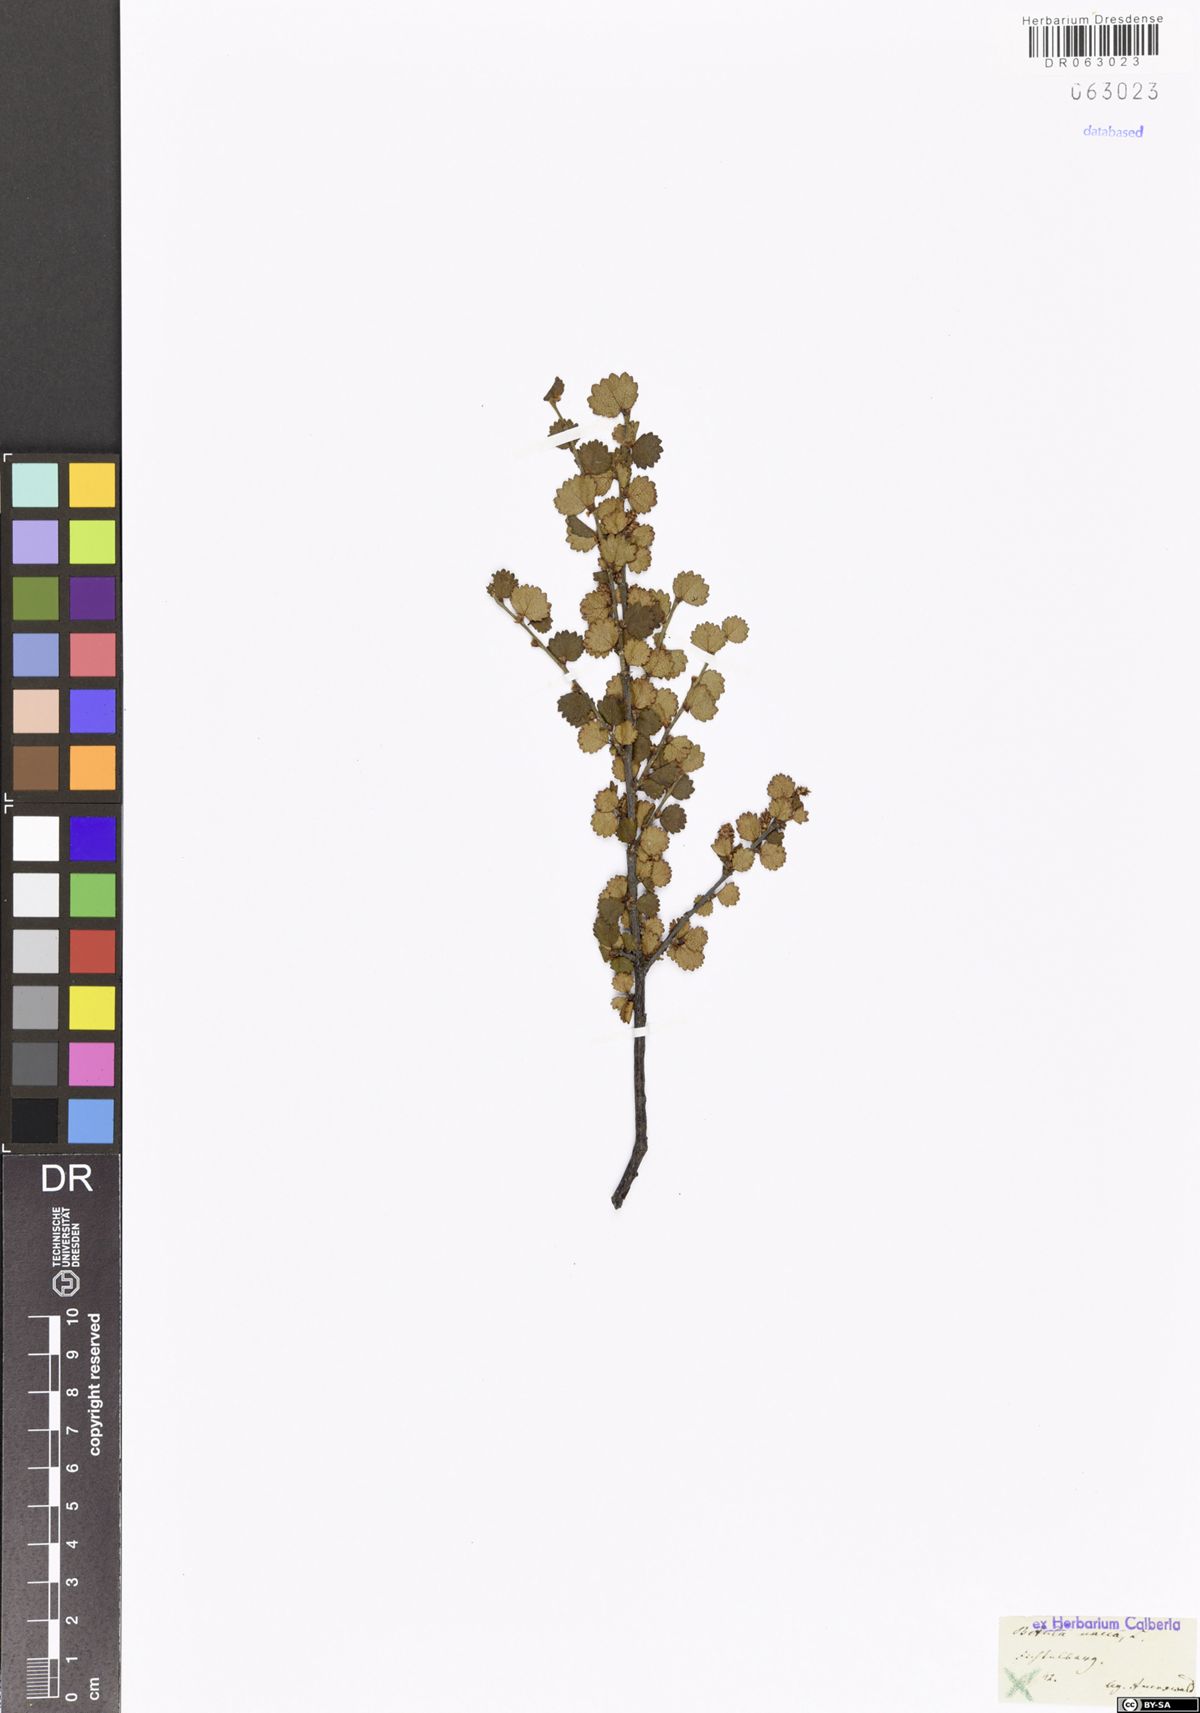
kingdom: Plantae
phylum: Tracheophyta
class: Magnoliopsida
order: Fagales
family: Betulaceae
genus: Betula
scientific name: Betula nana
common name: Arctic dwarf birch
